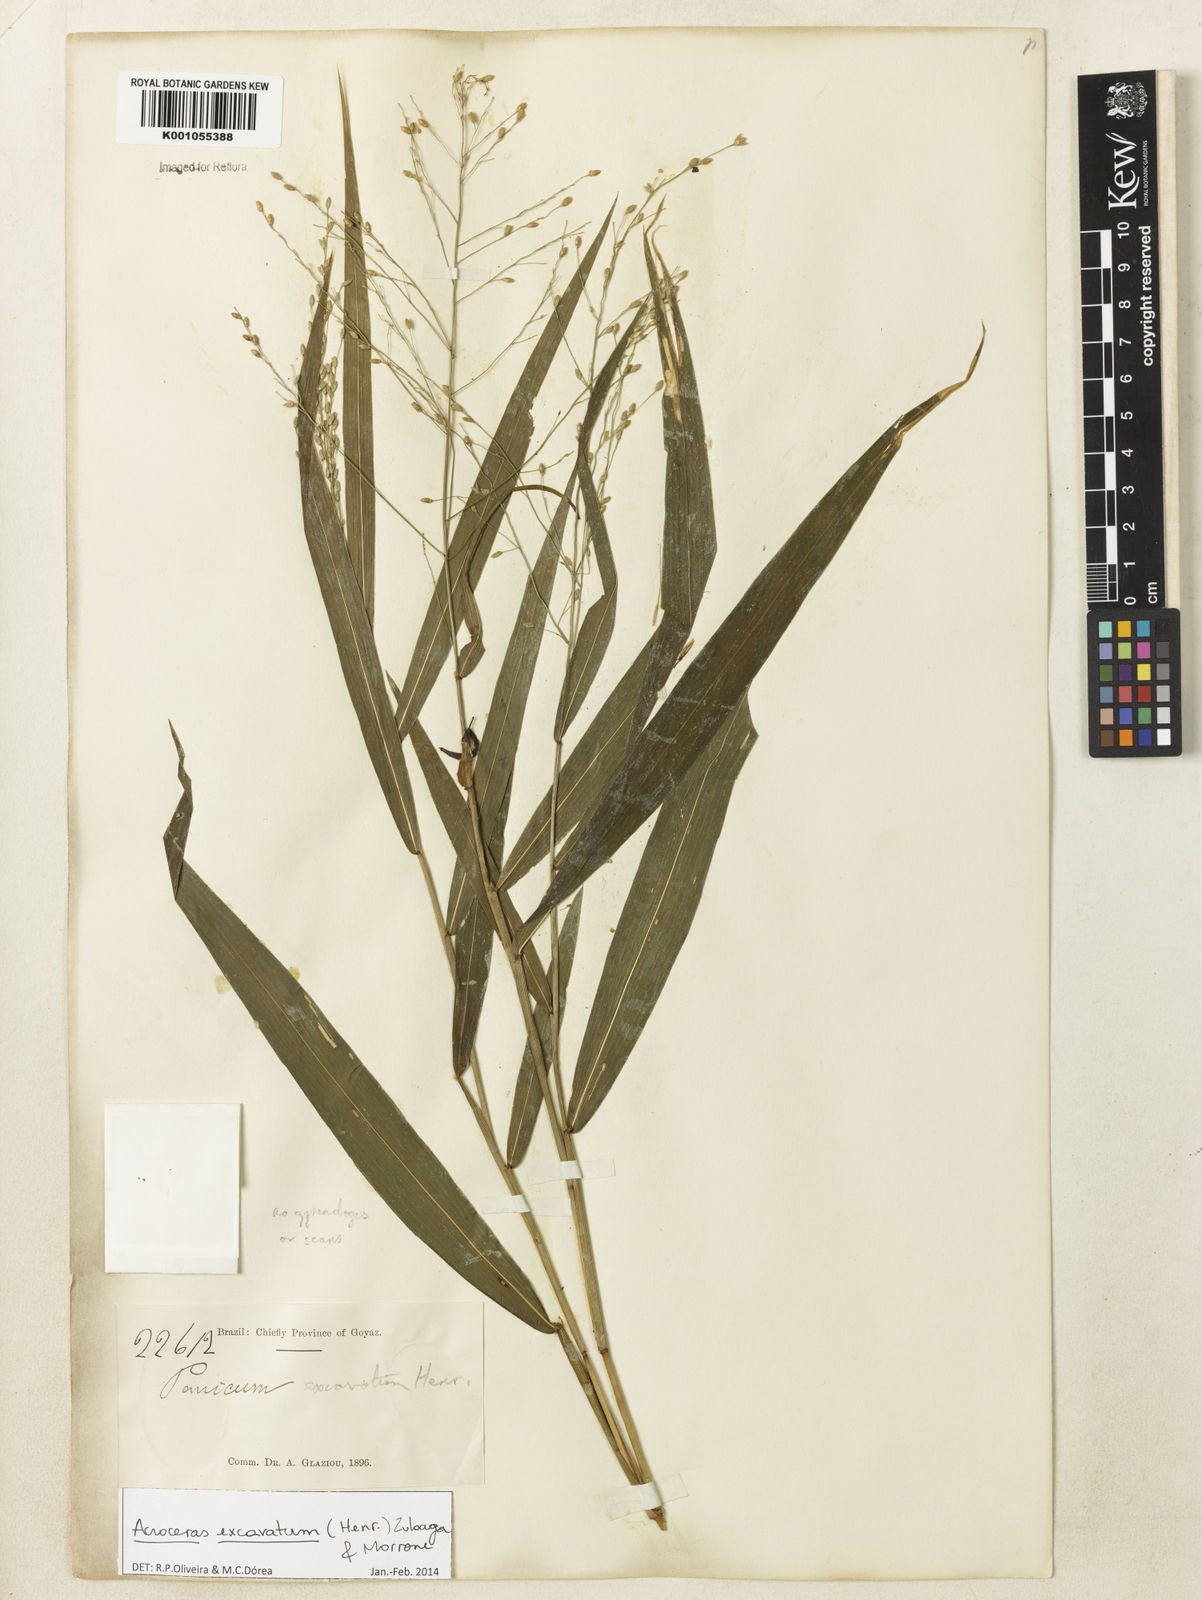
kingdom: Plantae
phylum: Tracheophyta
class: Liliopsida
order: Poales
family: Poaceae
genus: Acroceras
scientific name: Acroceras excavatum
